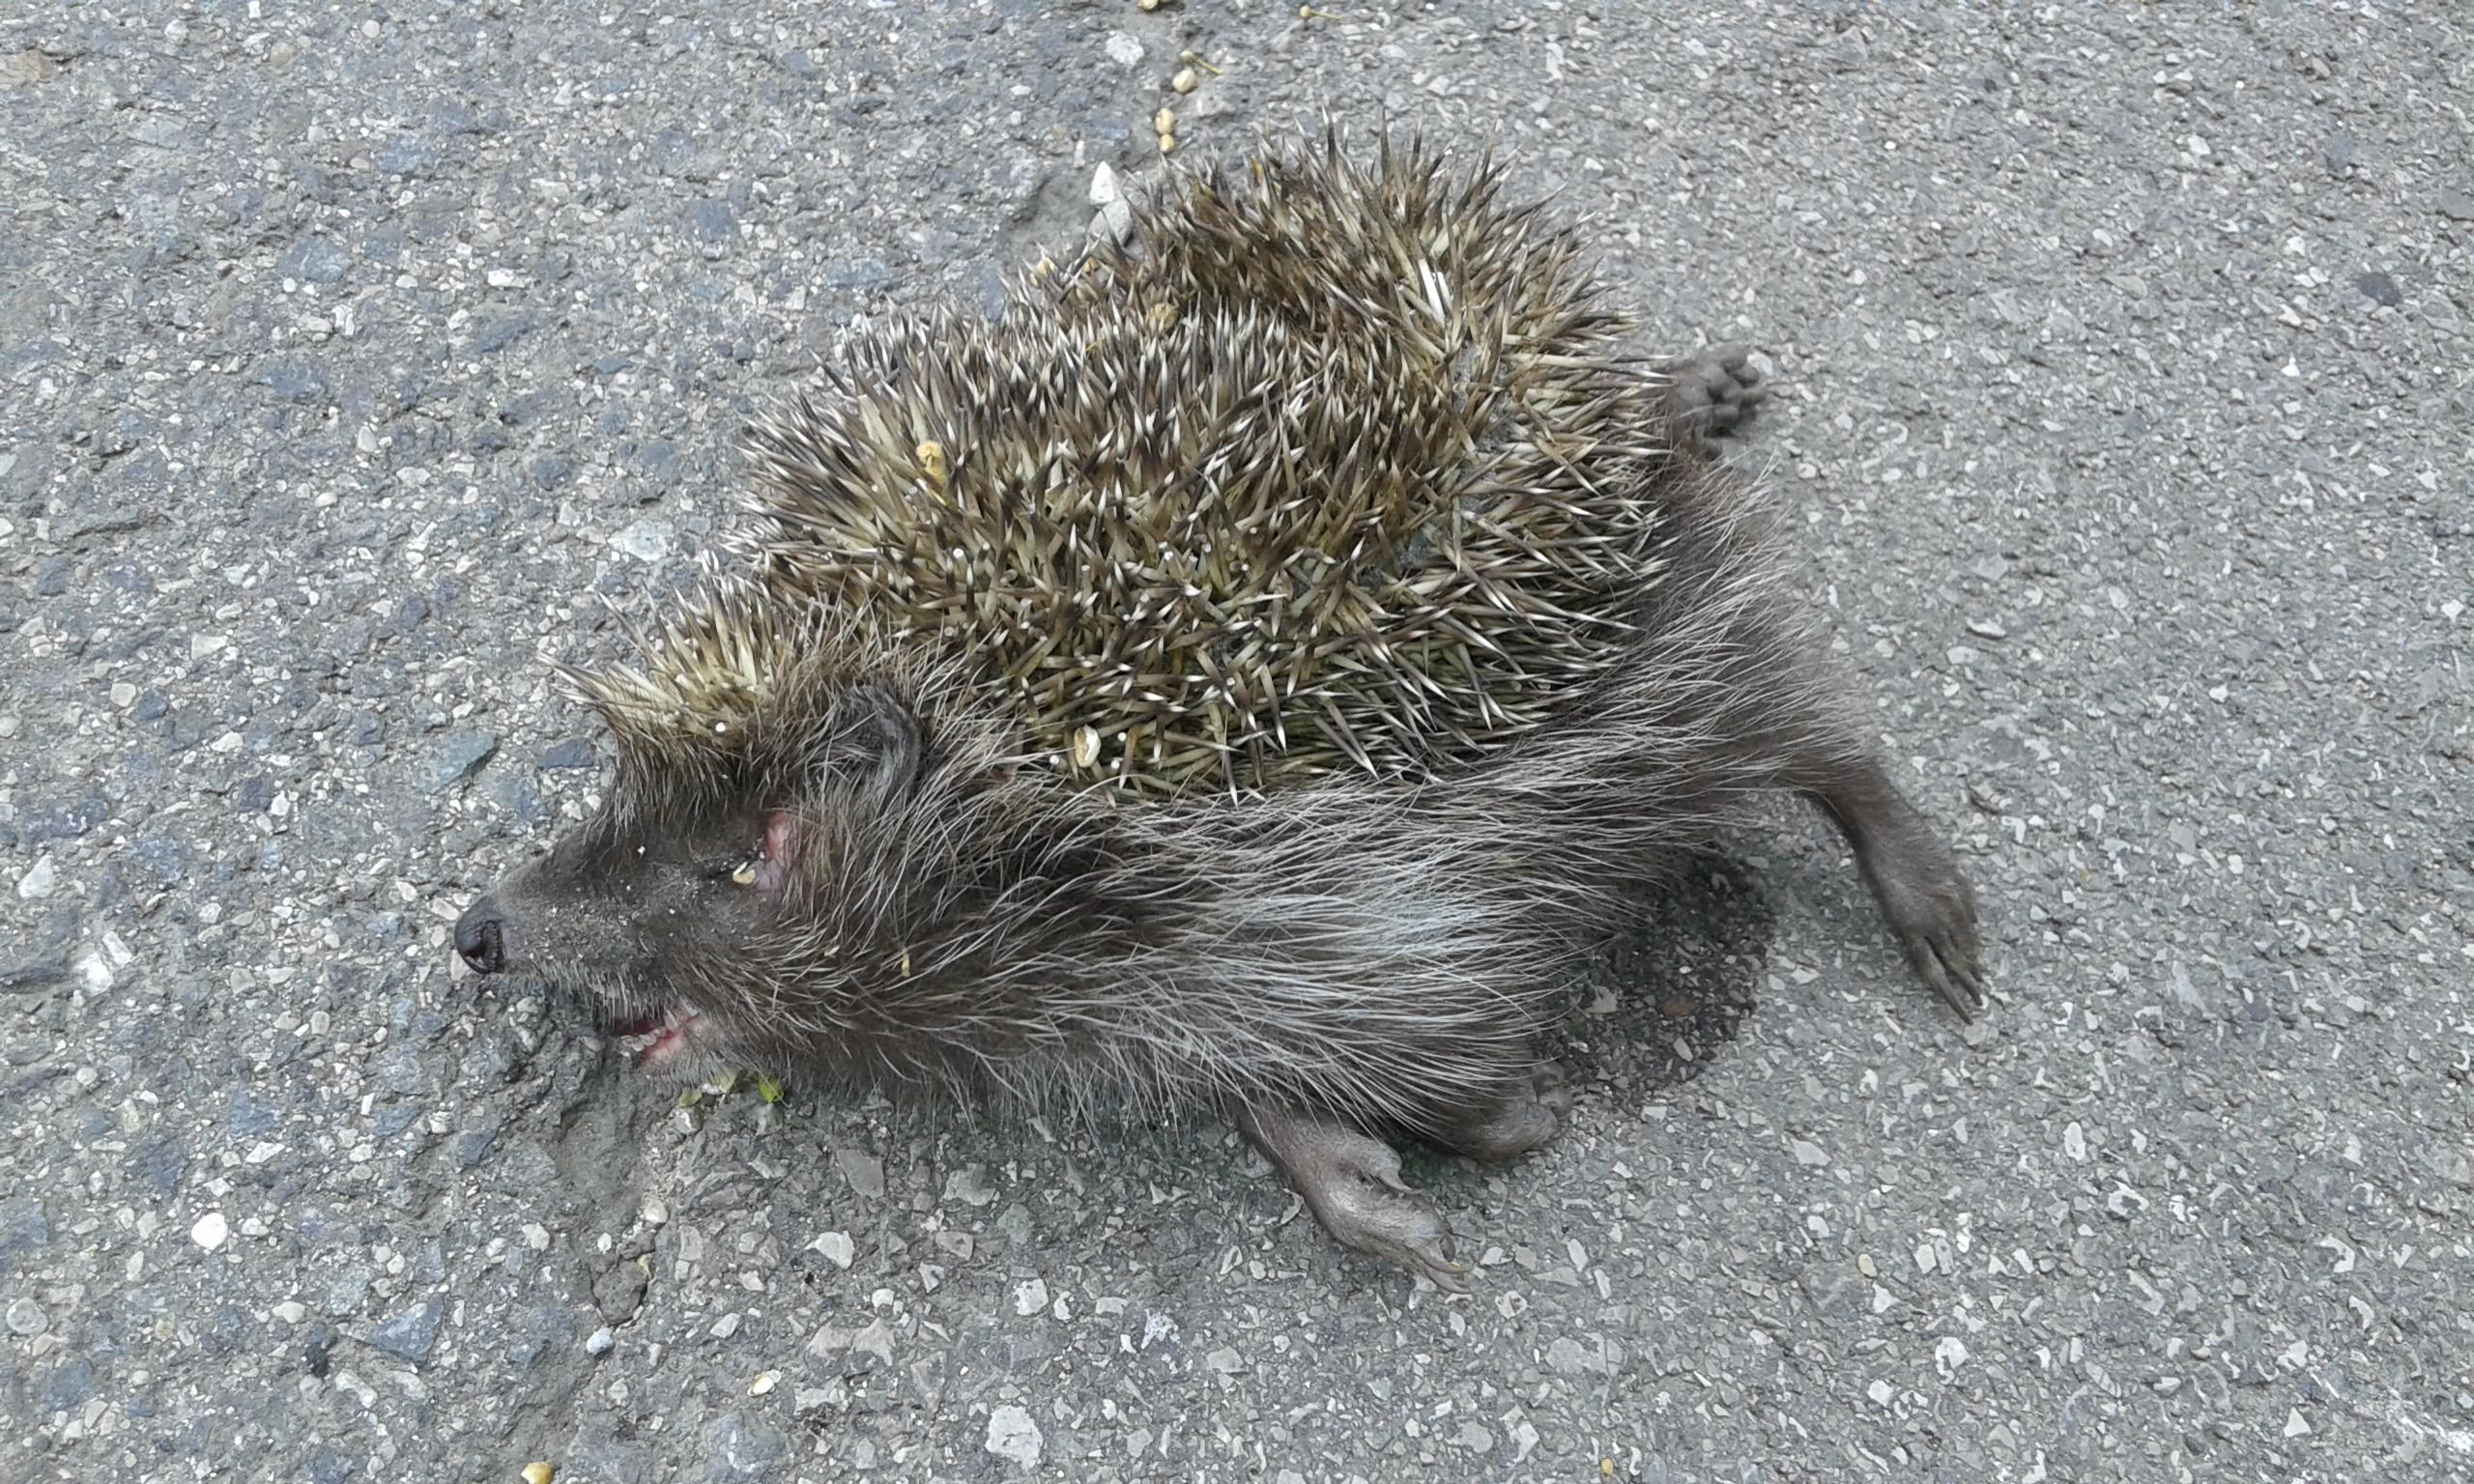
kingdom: Animalia
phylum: Chordata
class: Mammalia
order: Erinaceomorpha
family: Erinaceidae
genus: Erinaceus
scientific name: Erinaceus
